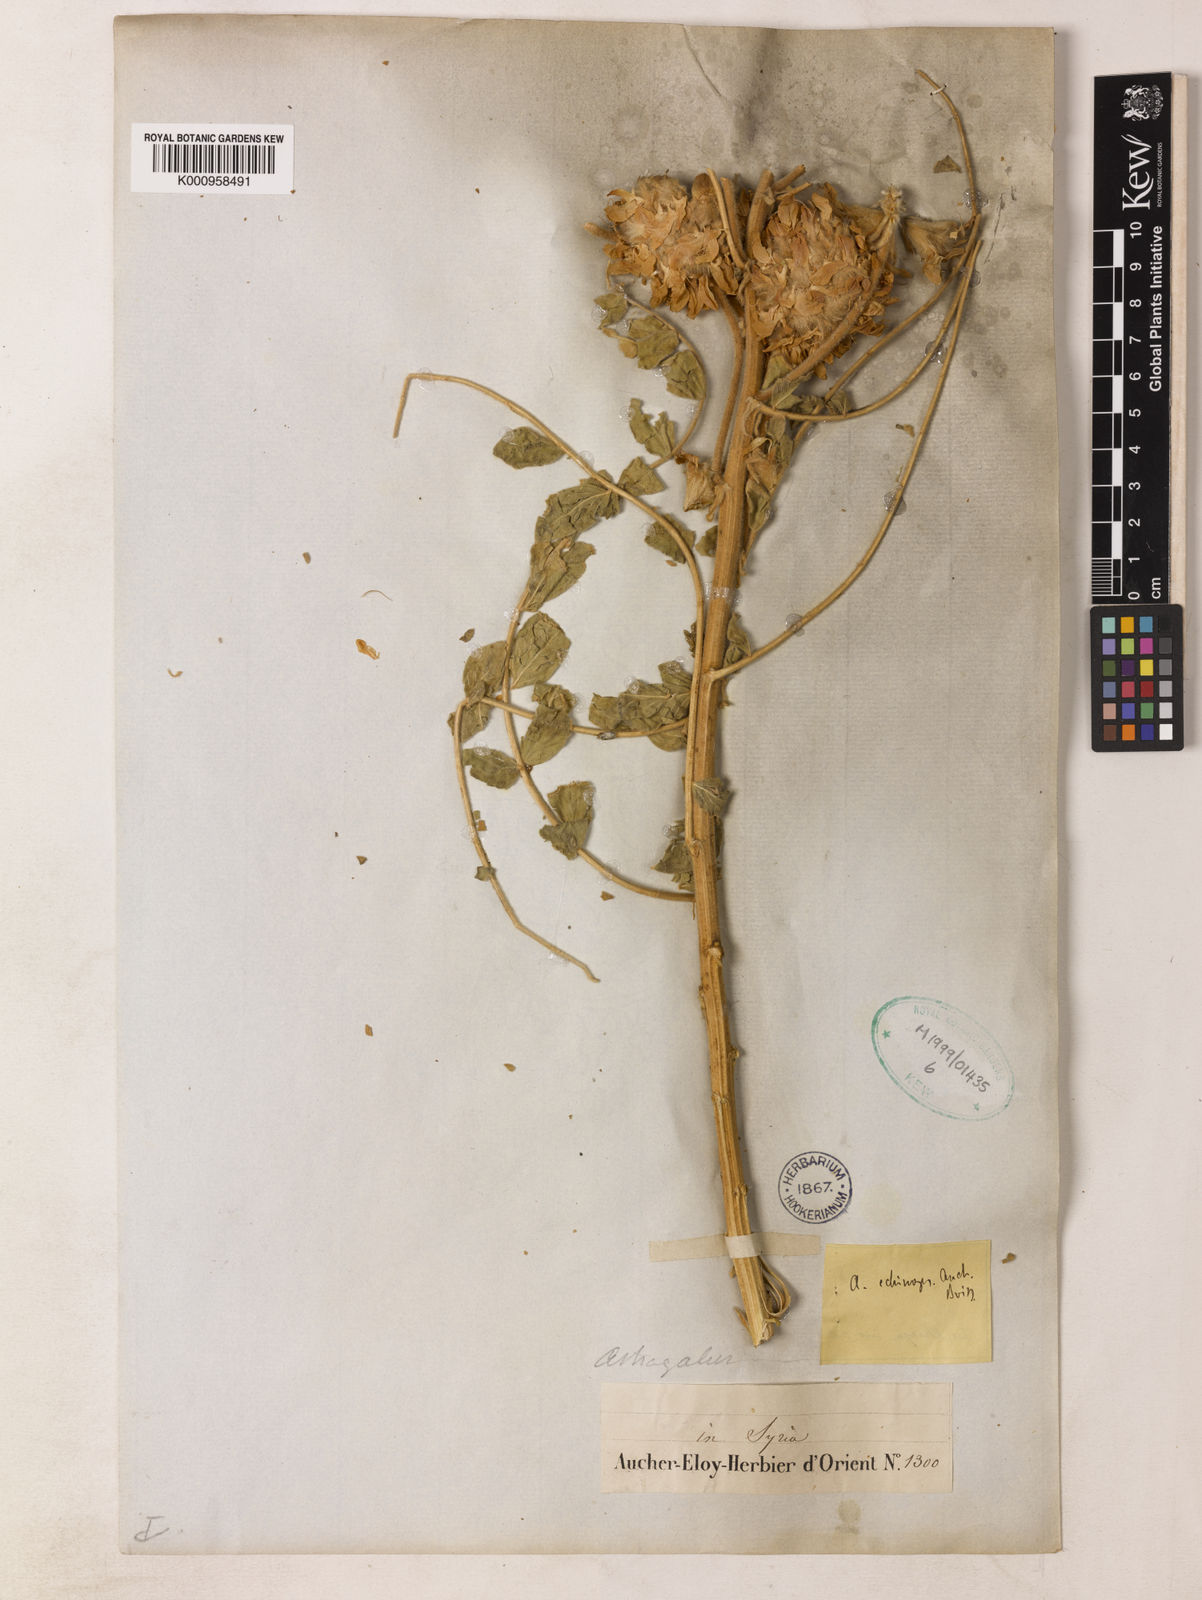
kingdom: Plantae
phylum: Tracheophyta
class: Magnoliopsida
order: Fabales
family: Fabaceae
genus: Astragalus
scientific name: Astragalus echinops
